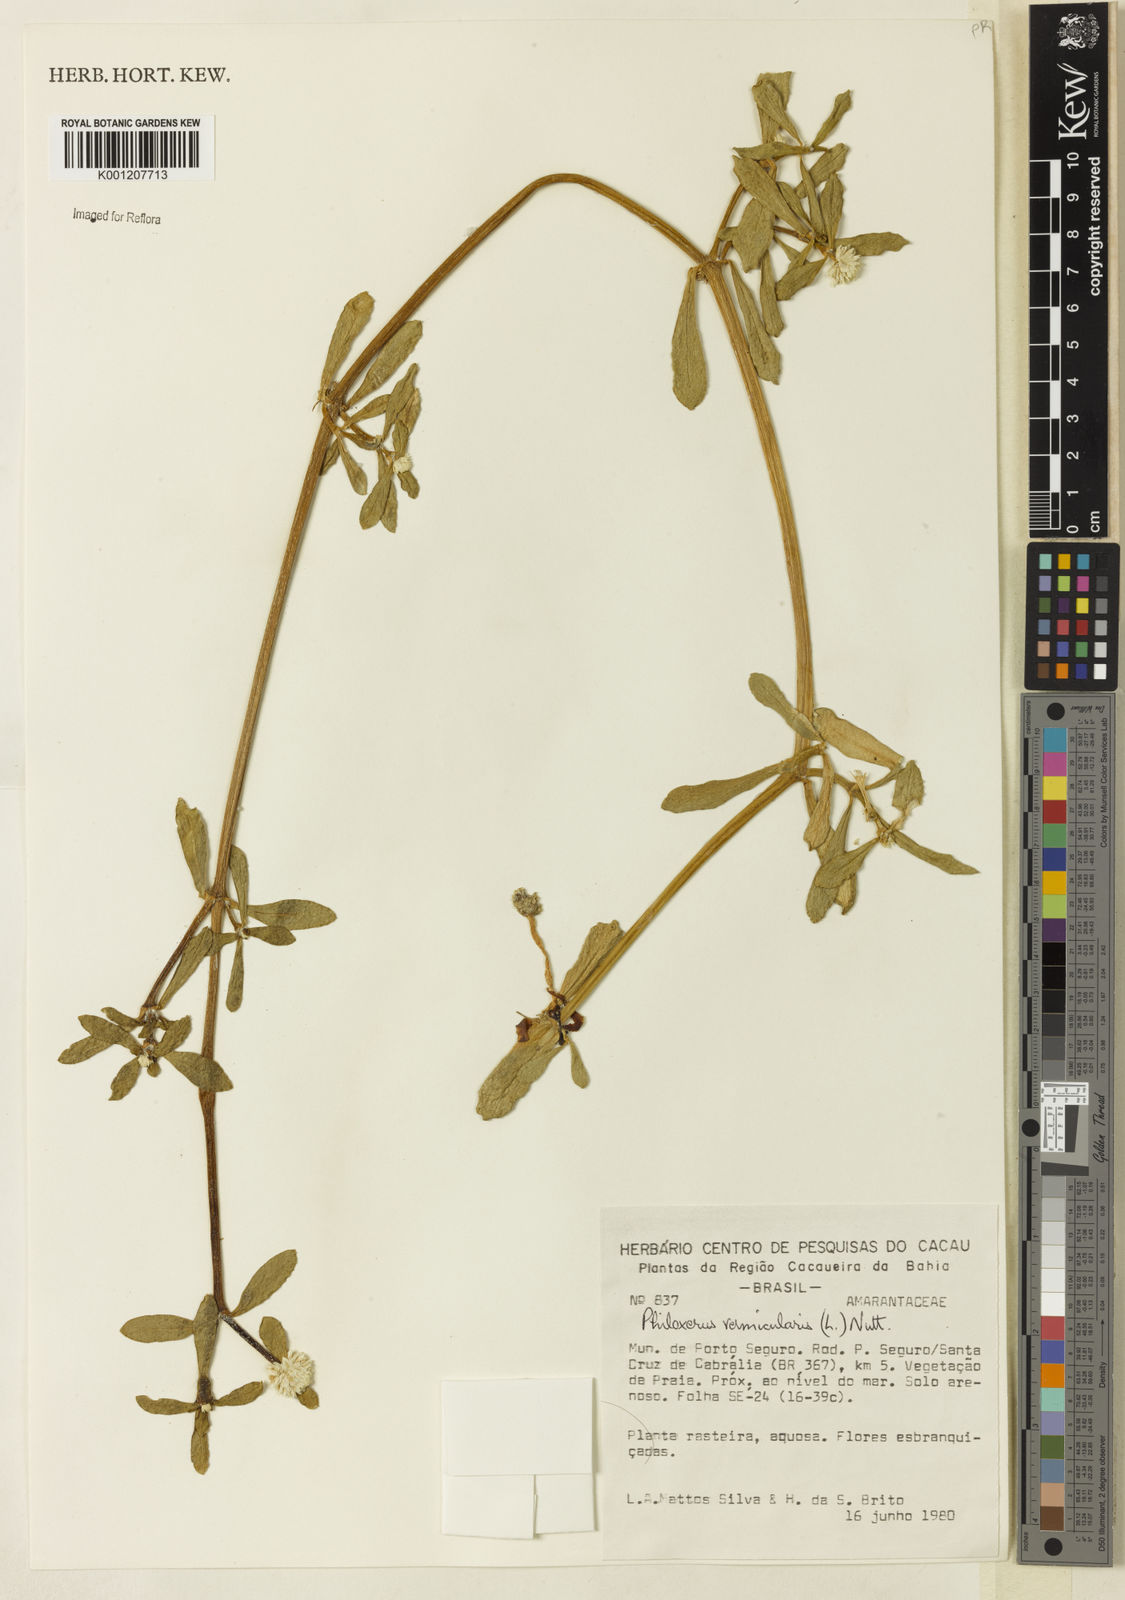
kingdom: Plantae
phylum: Tracheophyta
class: Magnoliopsida
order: Caryophyllales
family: Amaranthaceae
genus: Gomphrena
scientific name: Gomphrena vermicularis
